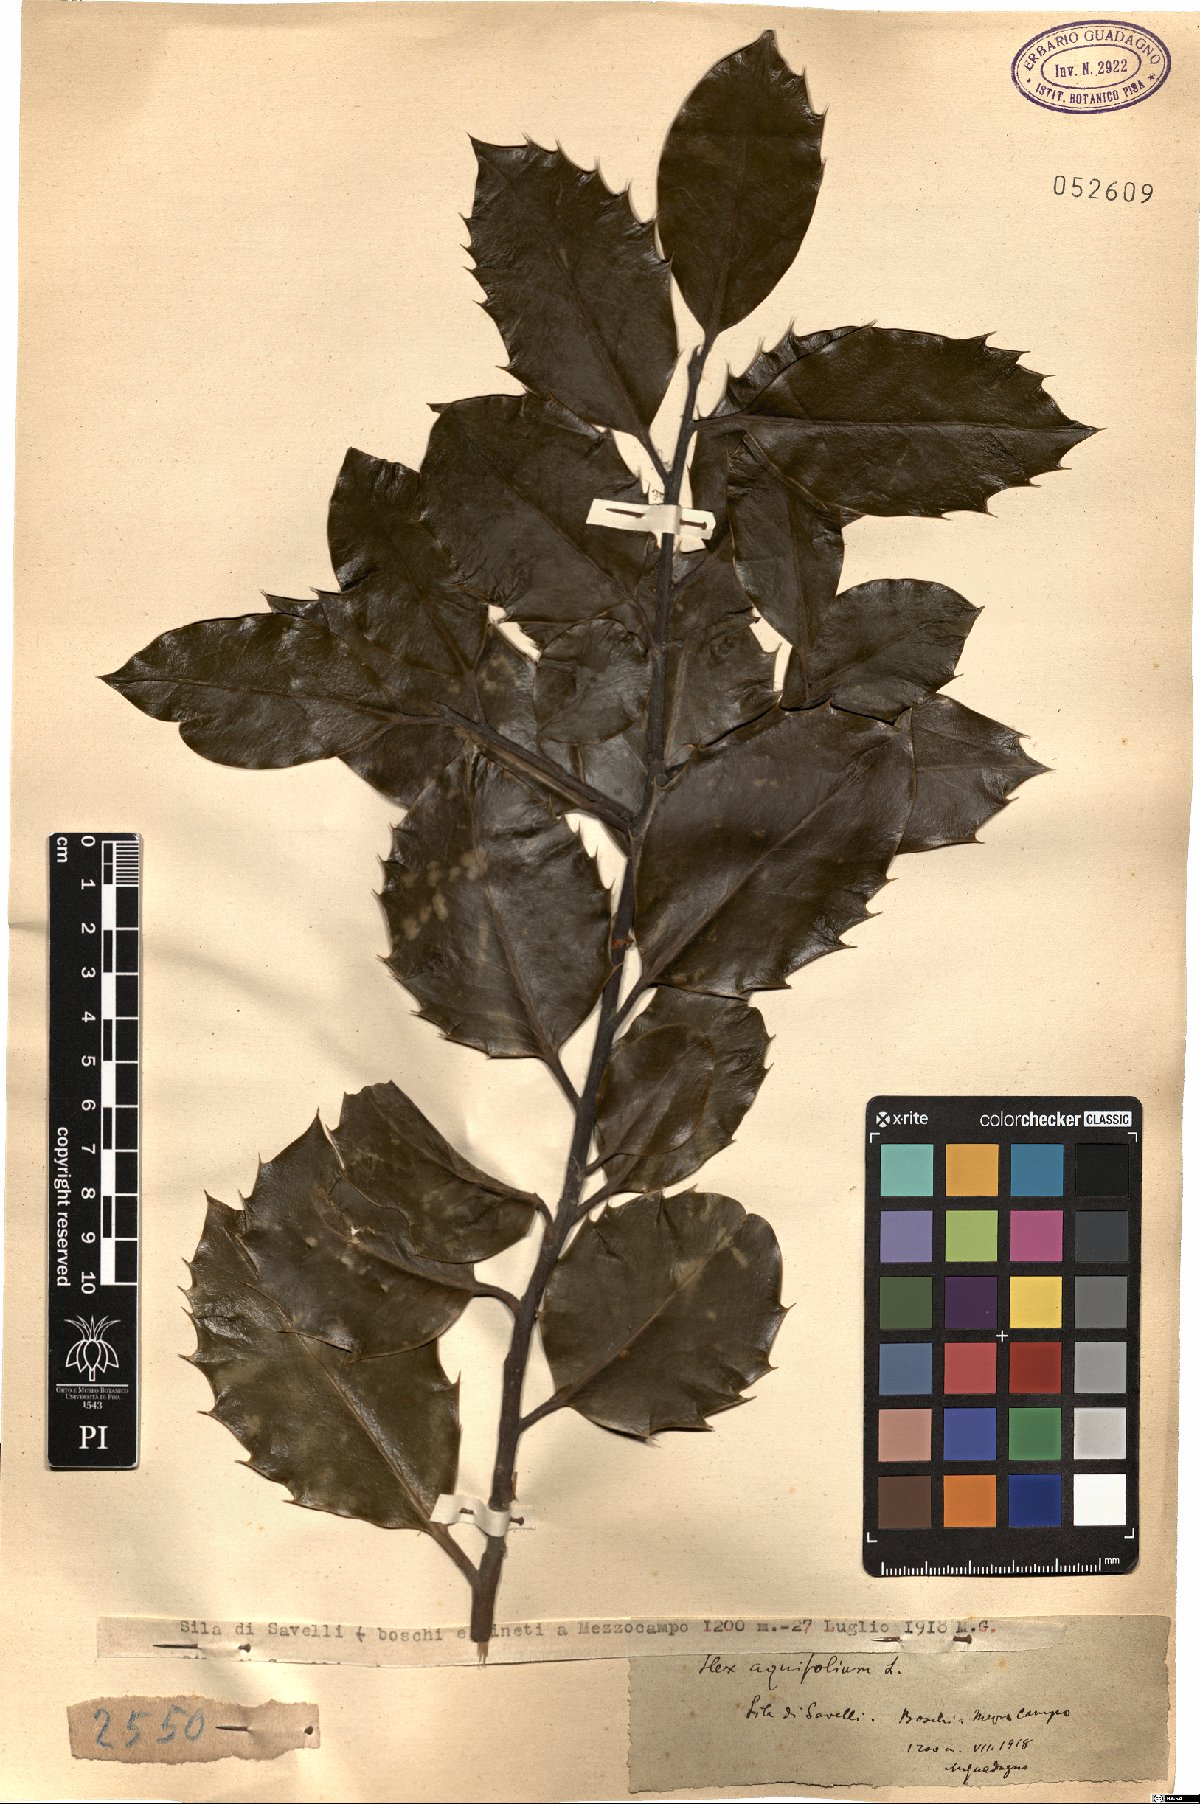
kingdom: Plantae
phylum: Tracheophyta
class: Magnoliopsida
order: Aquifoliales
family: Aquifoliaceae
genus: Ilex
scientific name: Ilex aquifolium
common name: English holly
